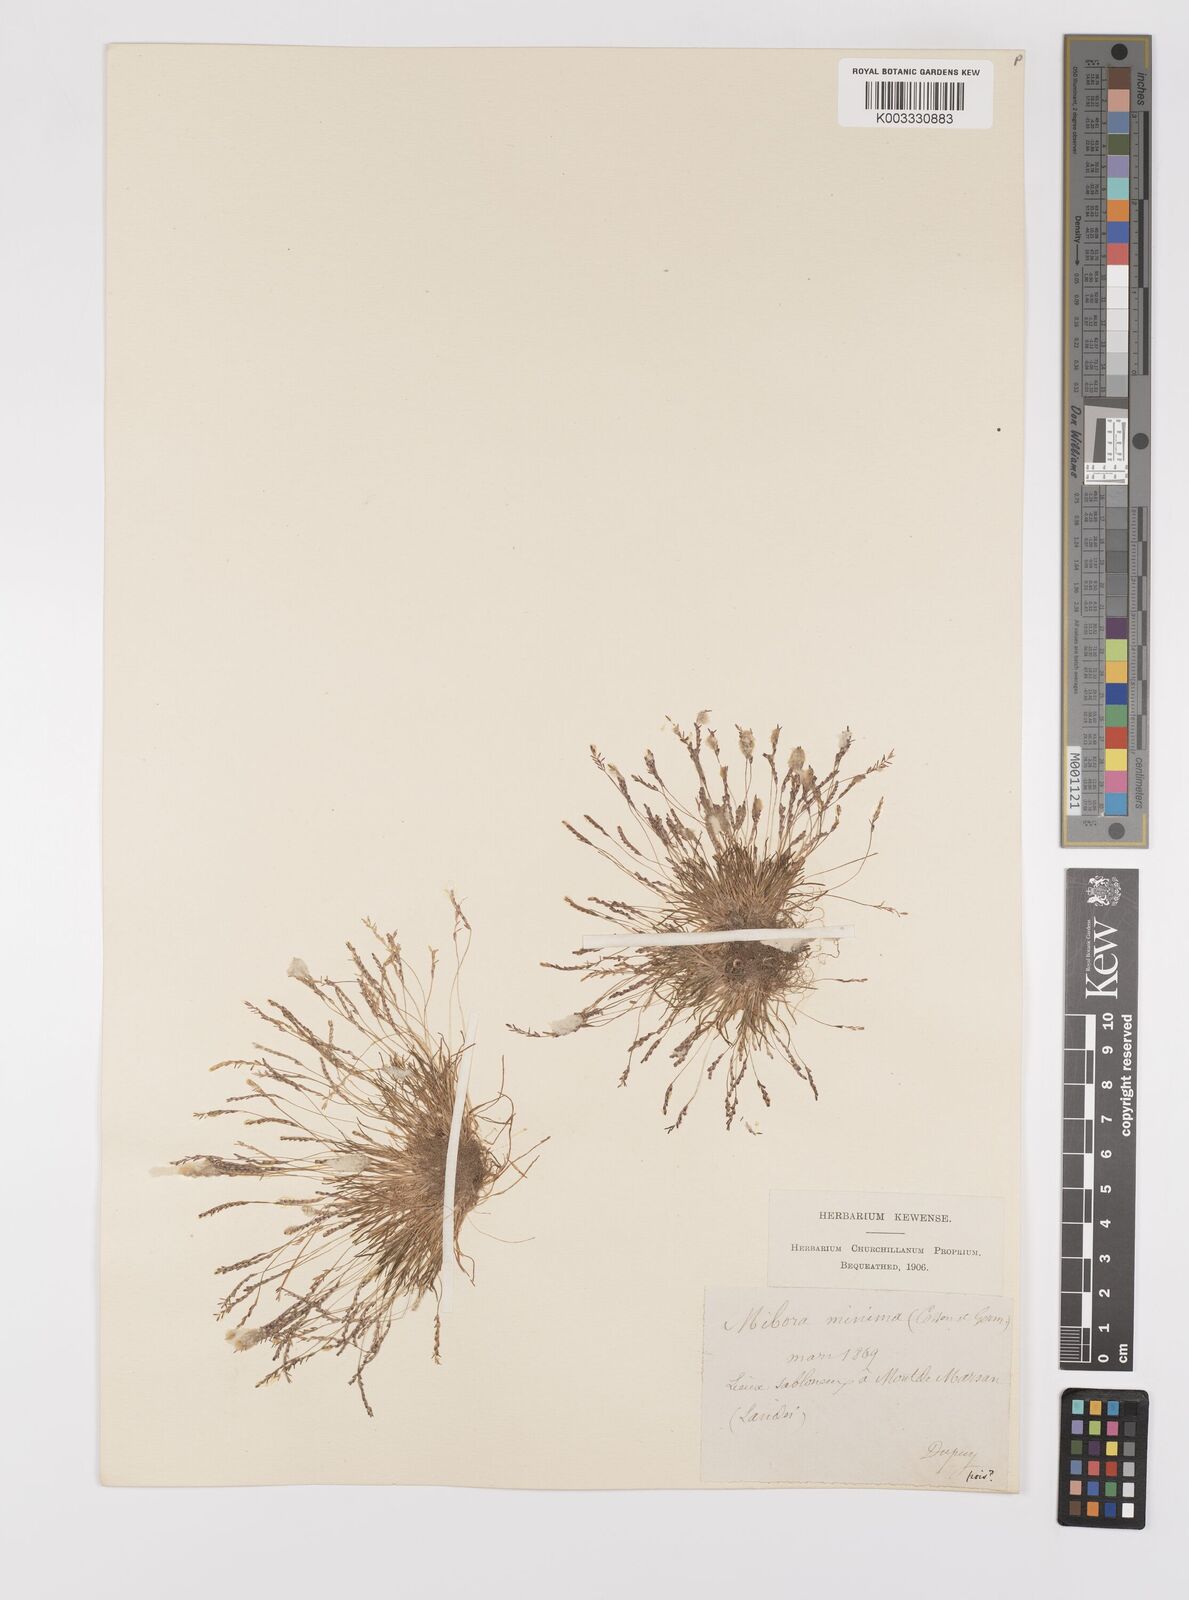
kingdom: Plantae
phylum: Tracheophyta
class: Liliopsida
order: Poales
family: Poaceae
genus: Mibora
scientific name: Mibora minima
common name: Early sand-grass
